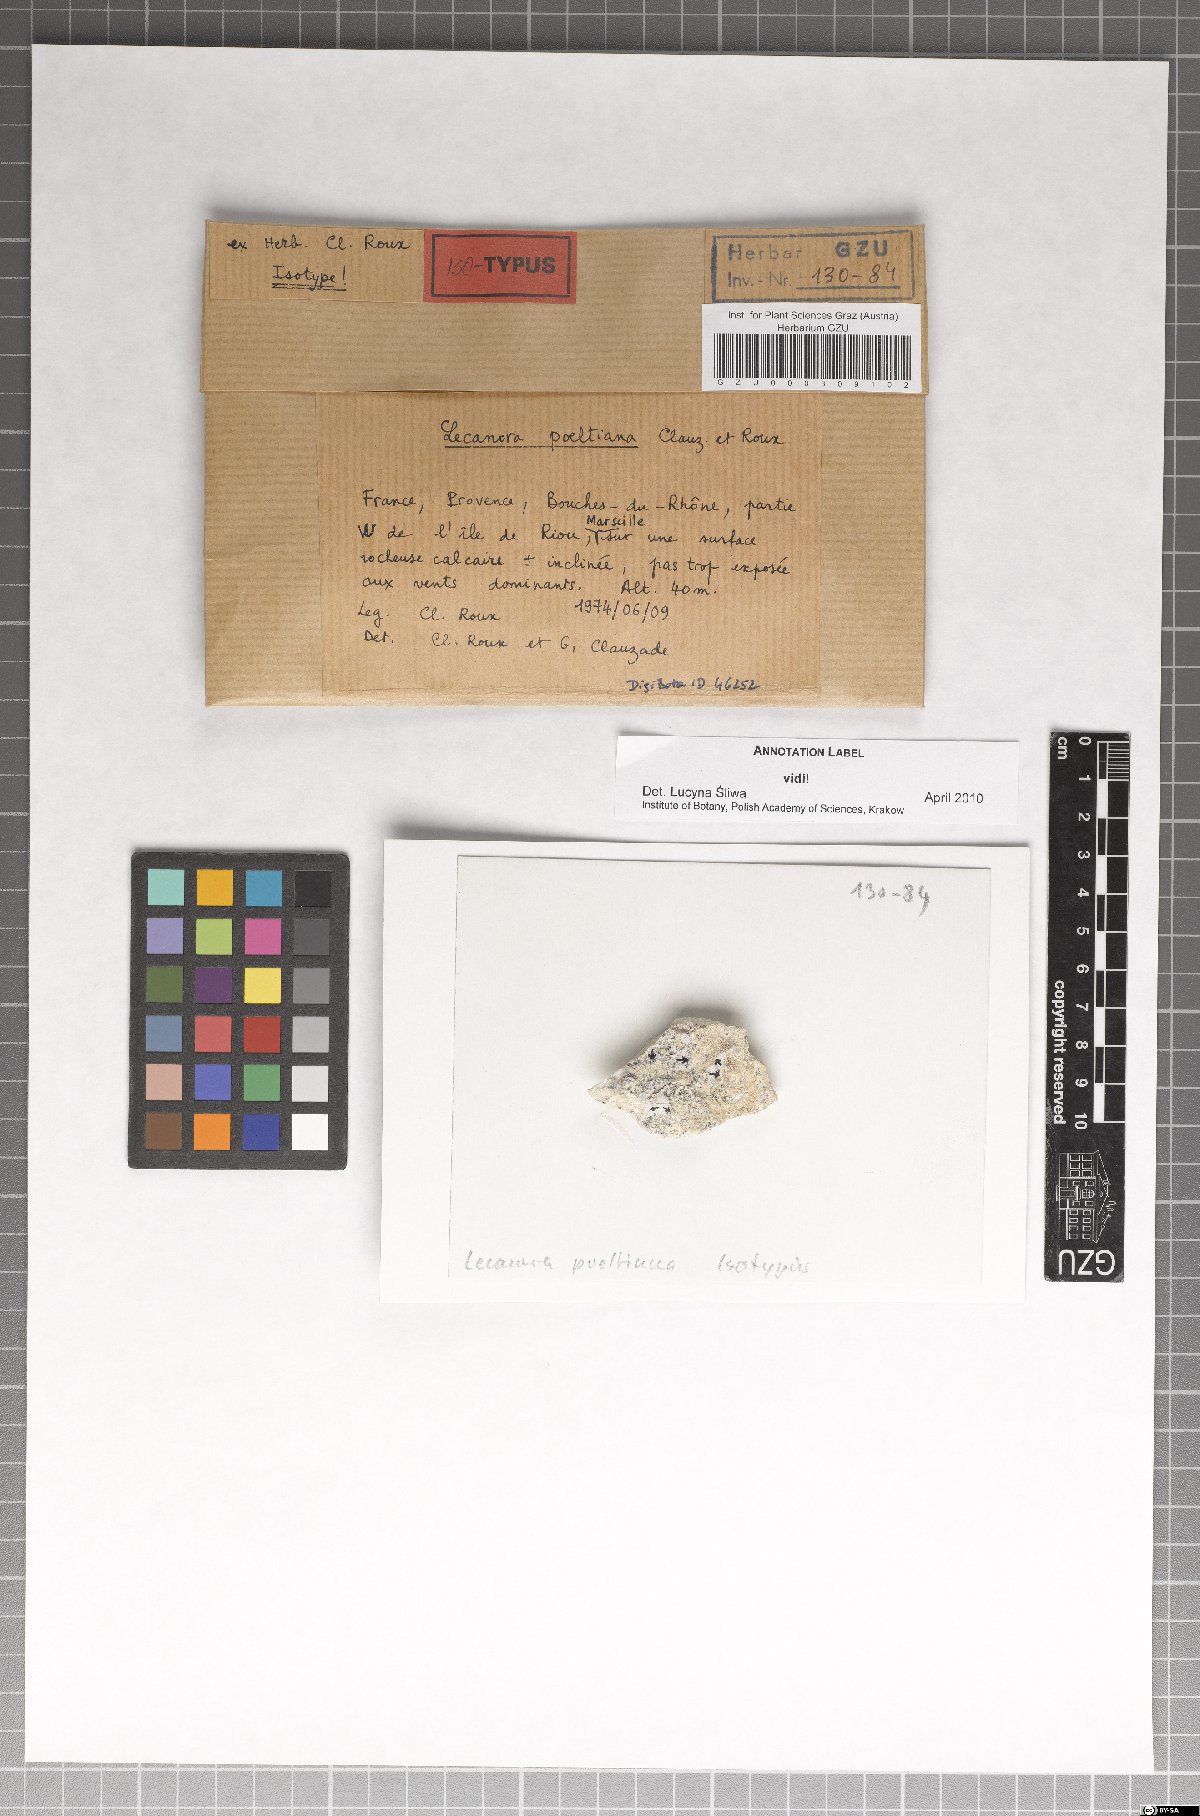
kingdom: Fungi
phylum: Ascomycota
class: Lecanoromycetes
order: Lecanorales
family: Lecanoraceae
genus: Polyozosia
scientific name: Polyozosia poeltiana
